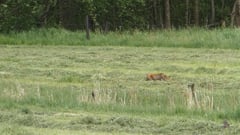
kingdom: Animalia
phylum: Chordata
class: Mammalia
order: Carnivora
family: Canidae
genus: Vulpes
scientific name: Vulpes vulpes
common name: Red fox
